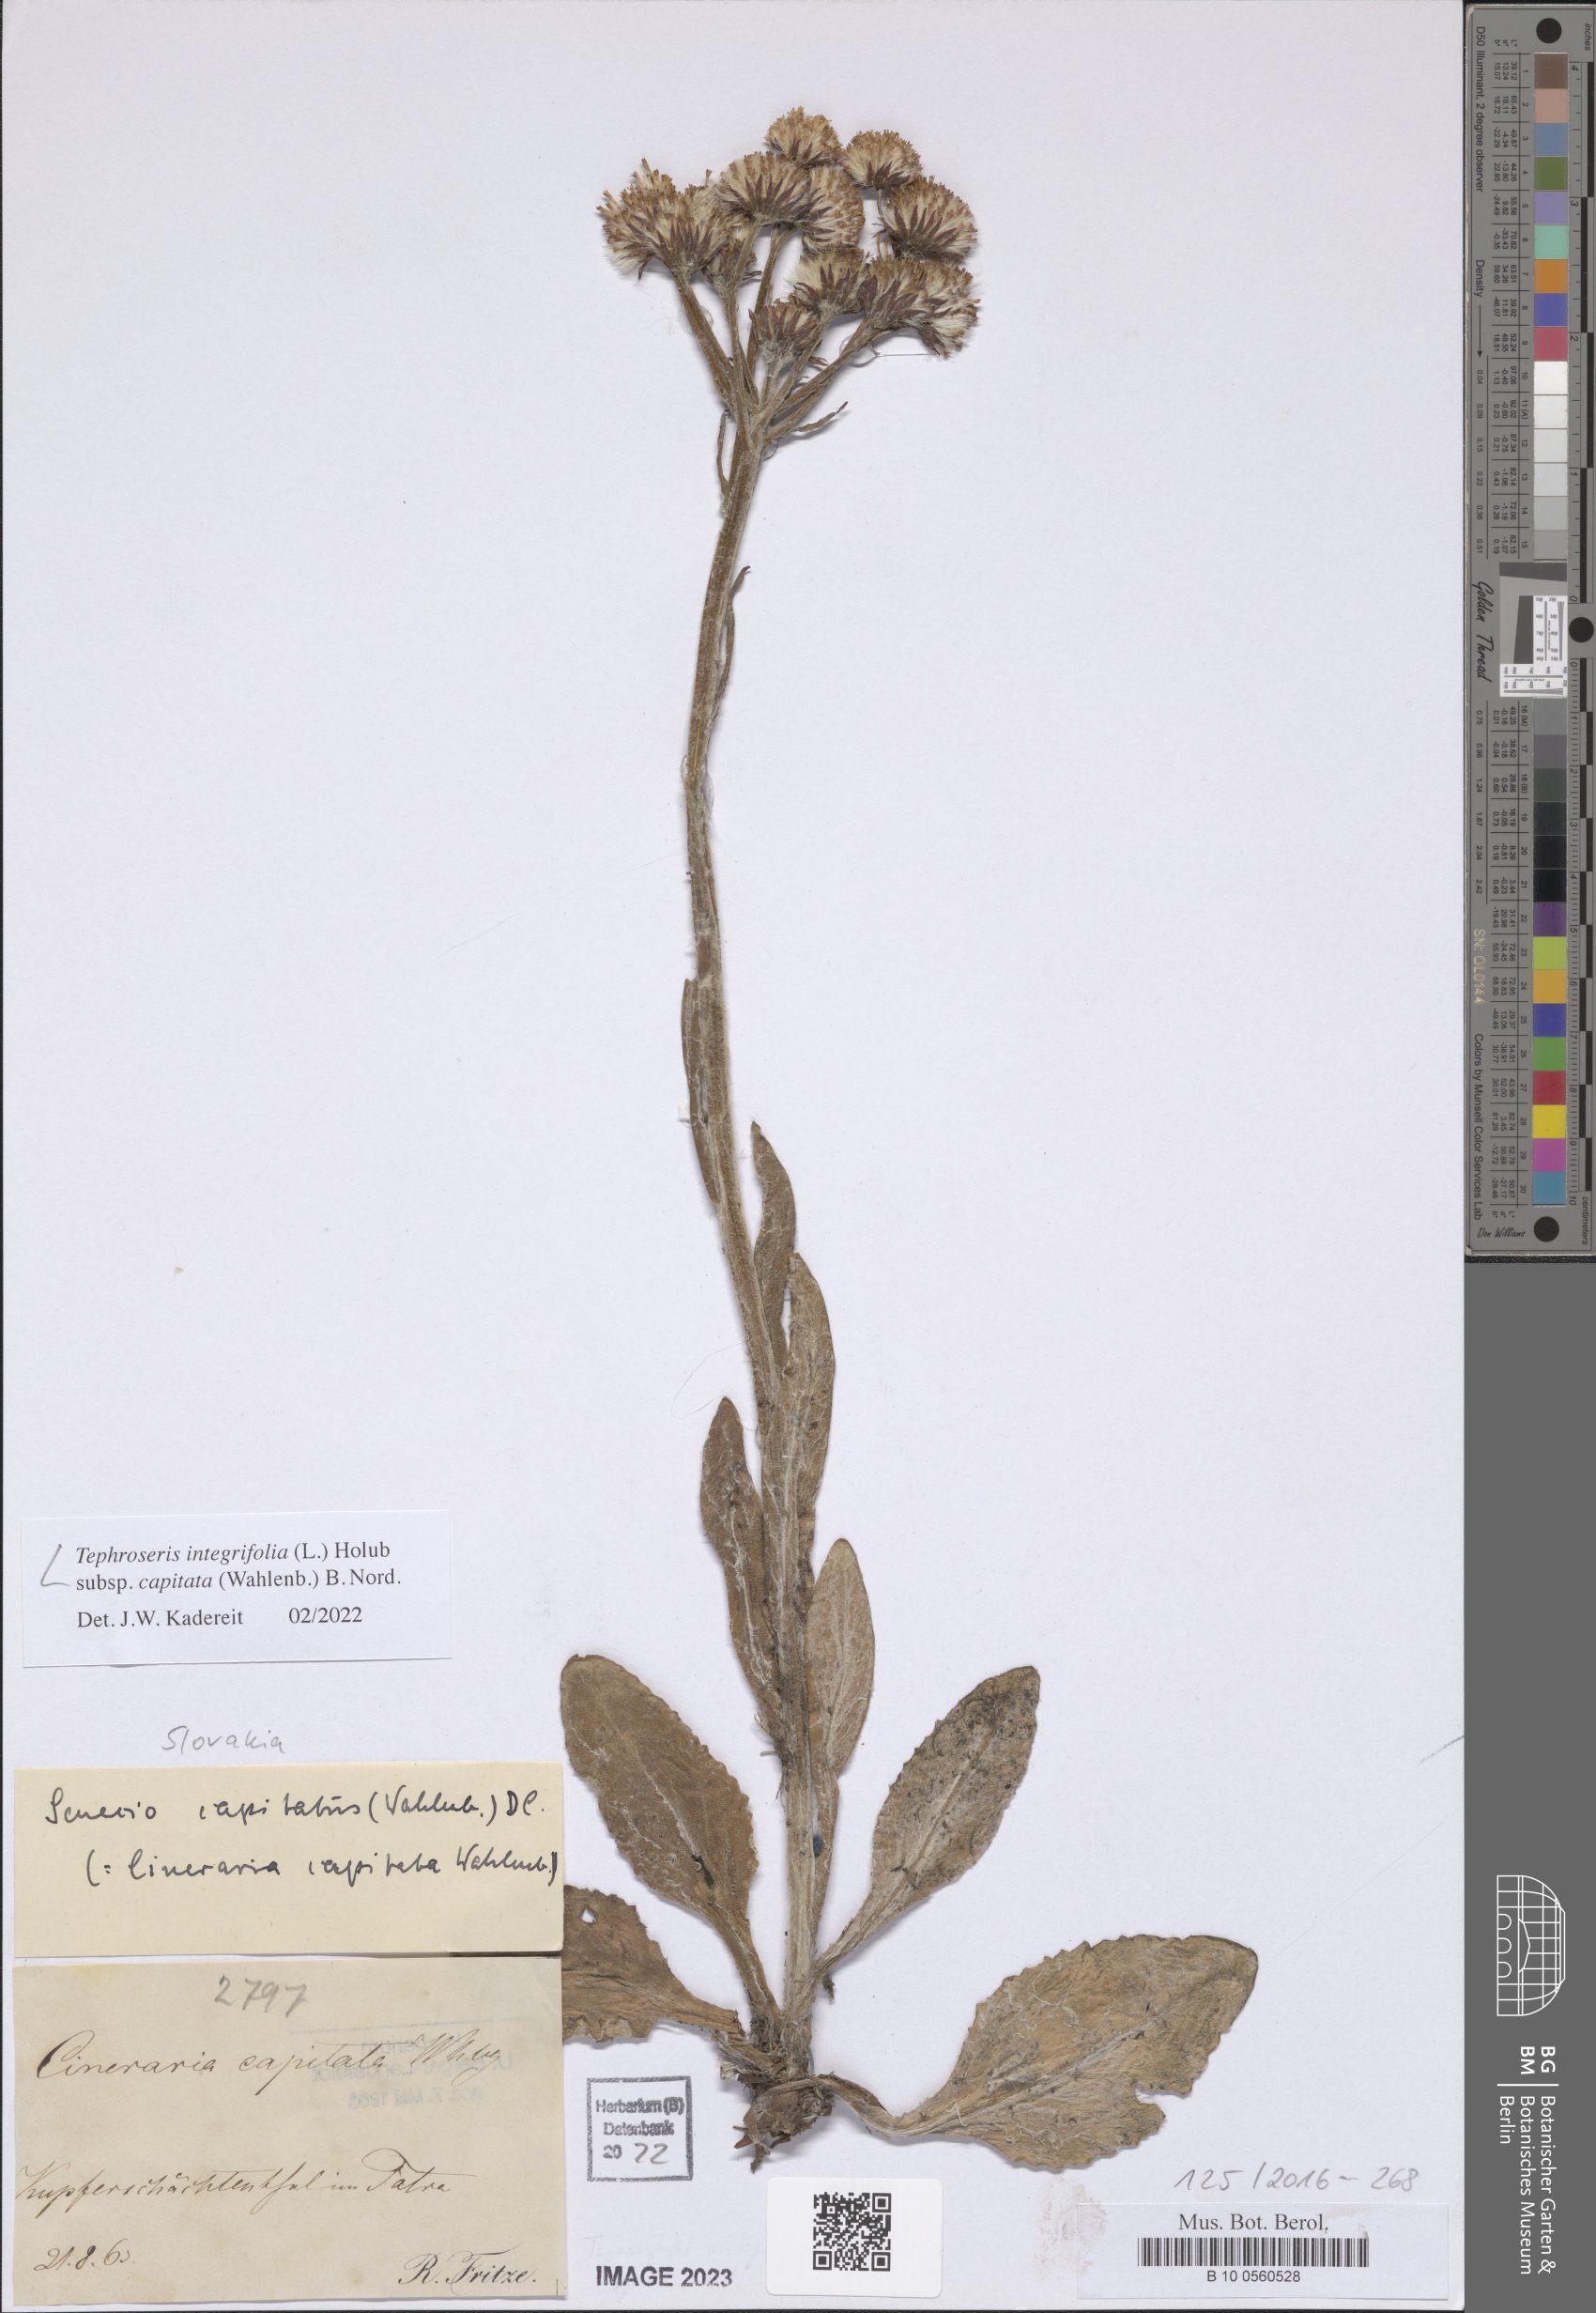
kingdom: Plantae
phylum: Tracheophyta
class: Magnoliopsida
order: Asterales
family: Asteraceae
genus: Tephroseris
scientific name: Tephroseris integrifolia
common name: Field fleawort
